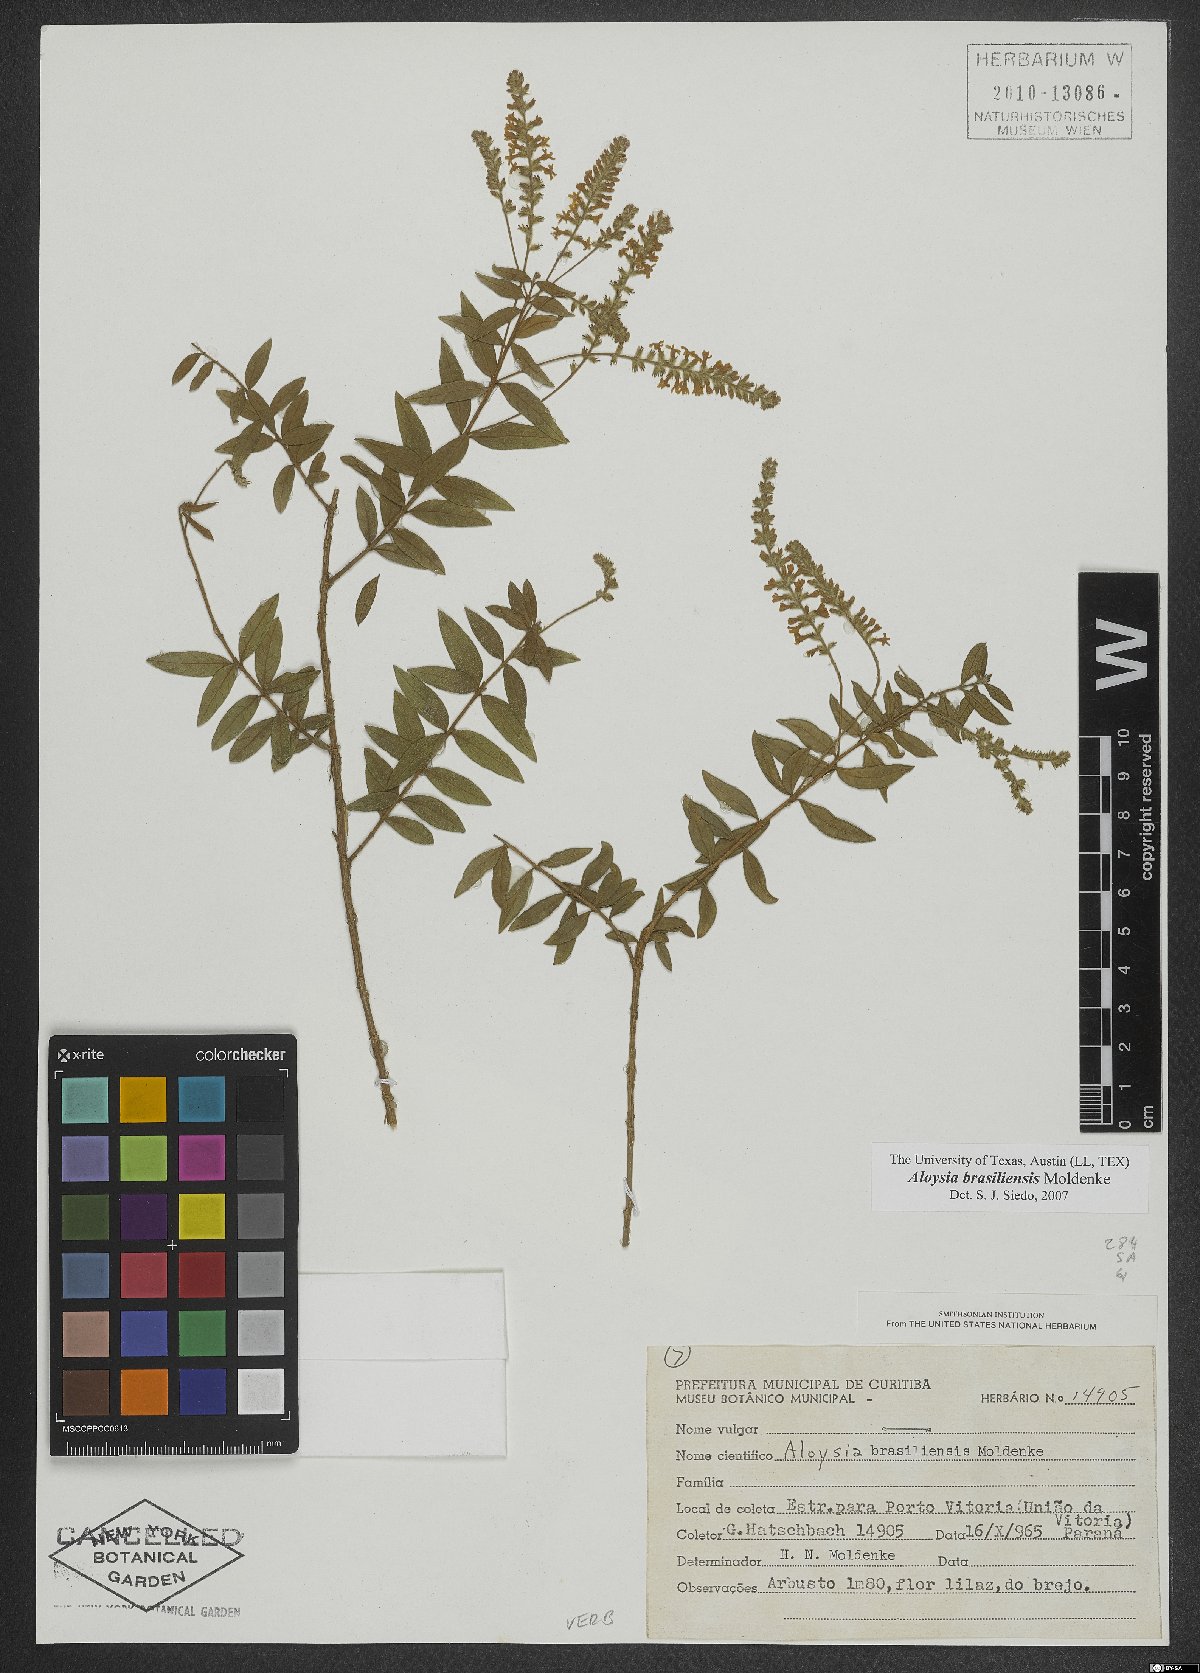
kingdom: Plantae
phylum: Tracheophyta
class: Magnoliopsida
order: Lamiales
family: Verbenaceae
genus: Aloysia
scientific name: Aloysia brasiliensis
